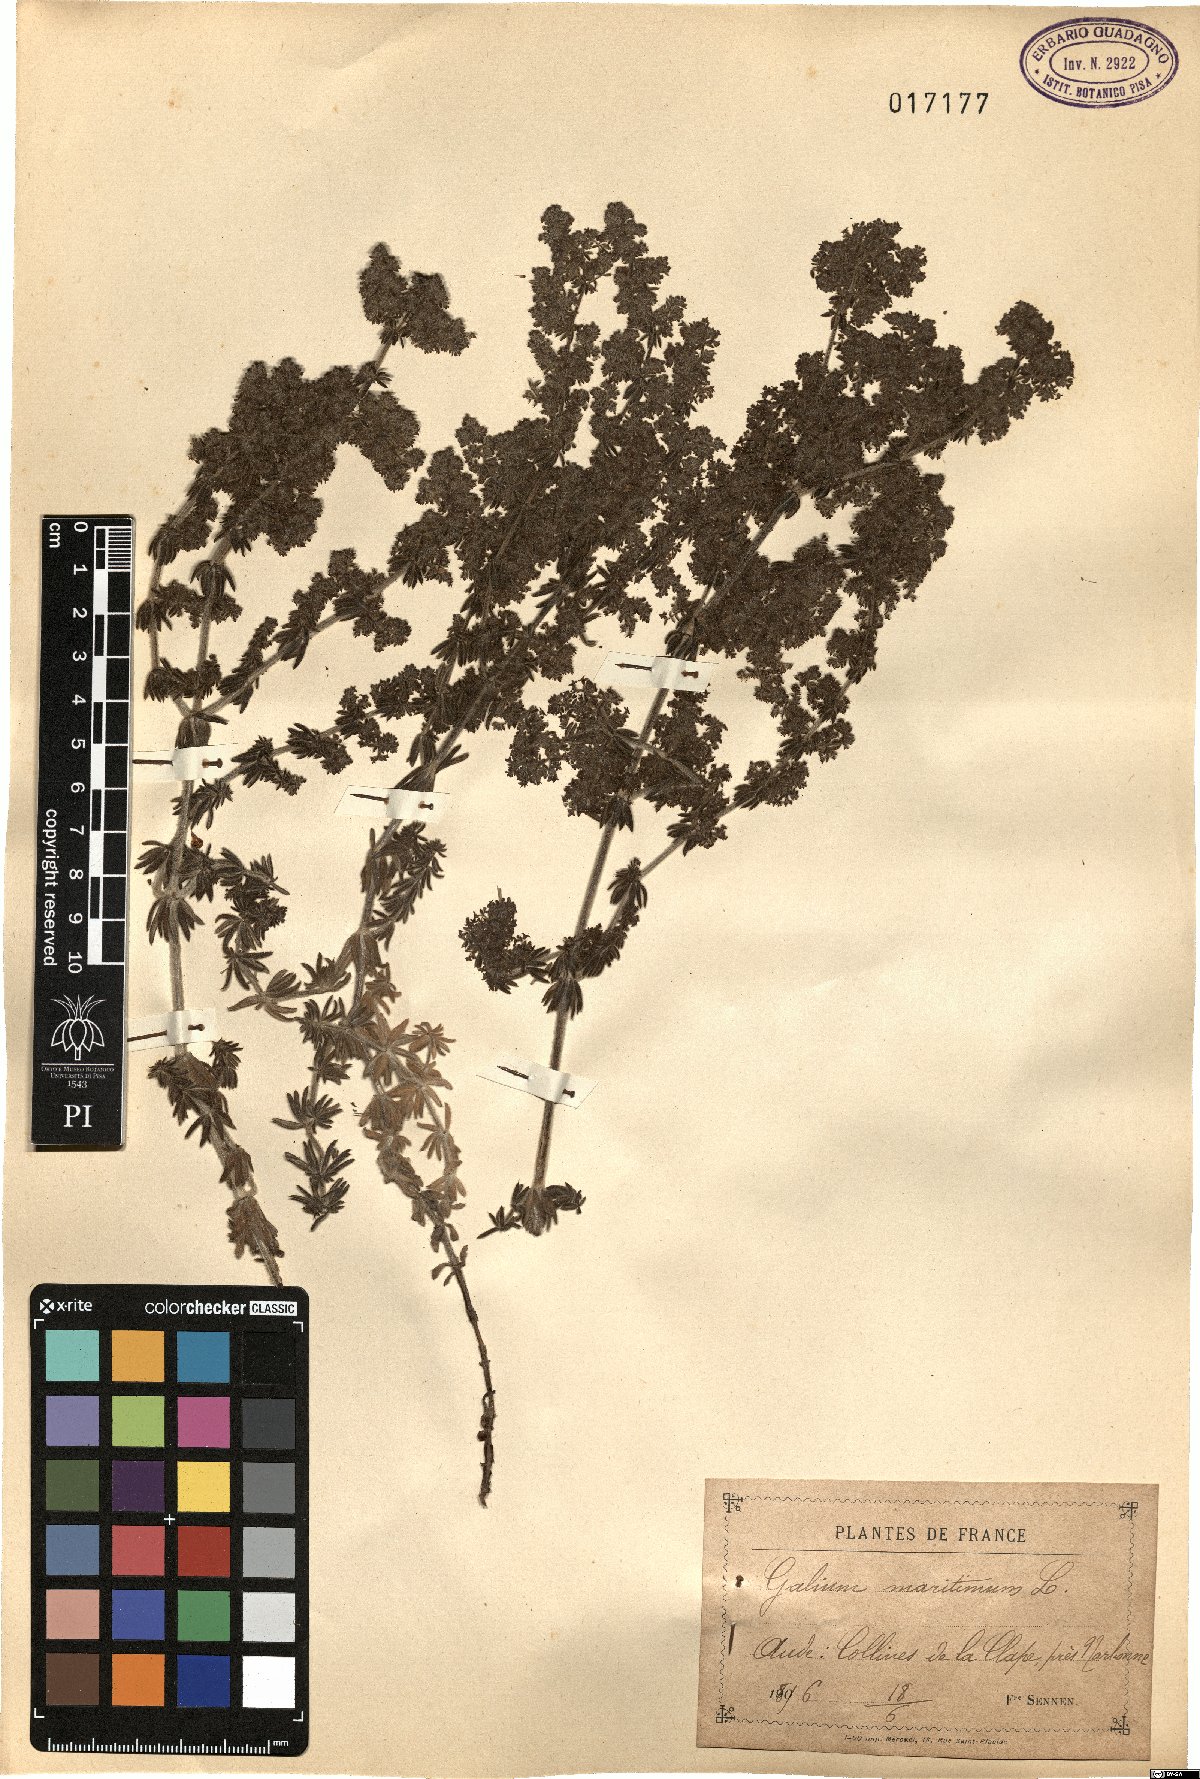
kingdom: Plantae
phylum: Tracheophyta
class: Magnoliopsida
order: Gentianales
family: Rubiaceae
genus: Galium
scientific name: Galium maritimum
